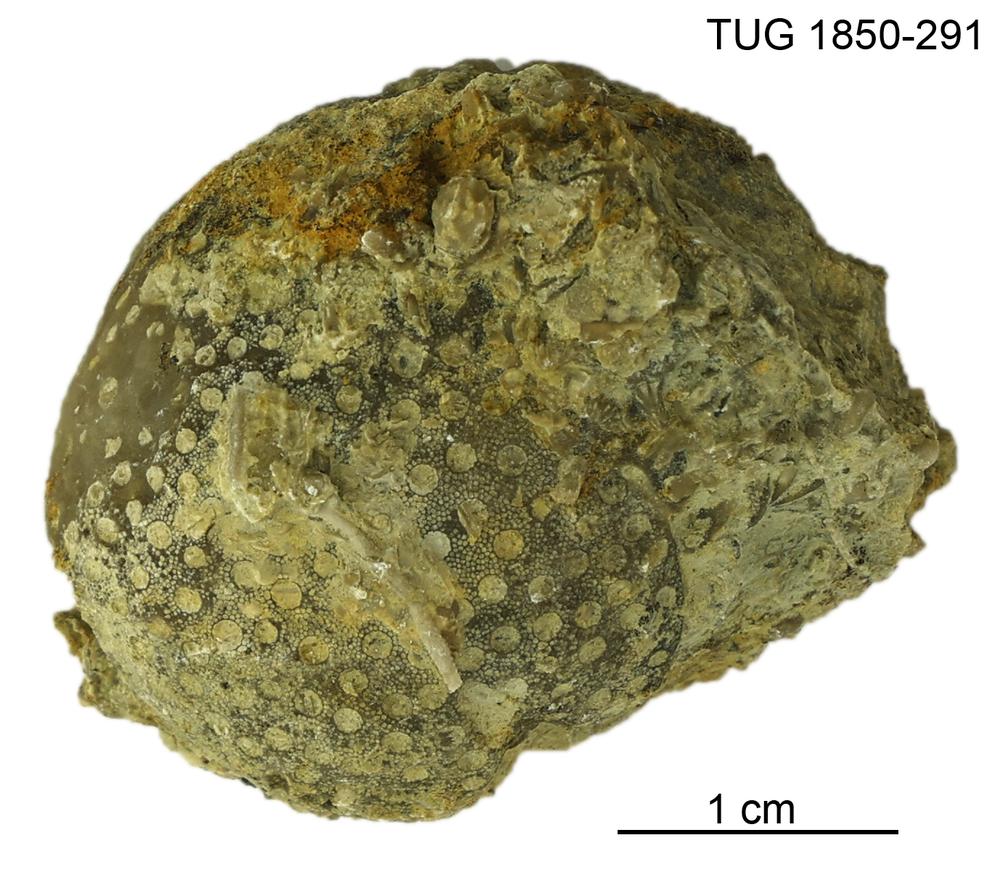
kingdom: Animalia
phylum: Cnidaria
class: Anthozoa
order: Heliolitina
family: Heliolitidae
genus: Heliolites
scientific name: Heliolites
